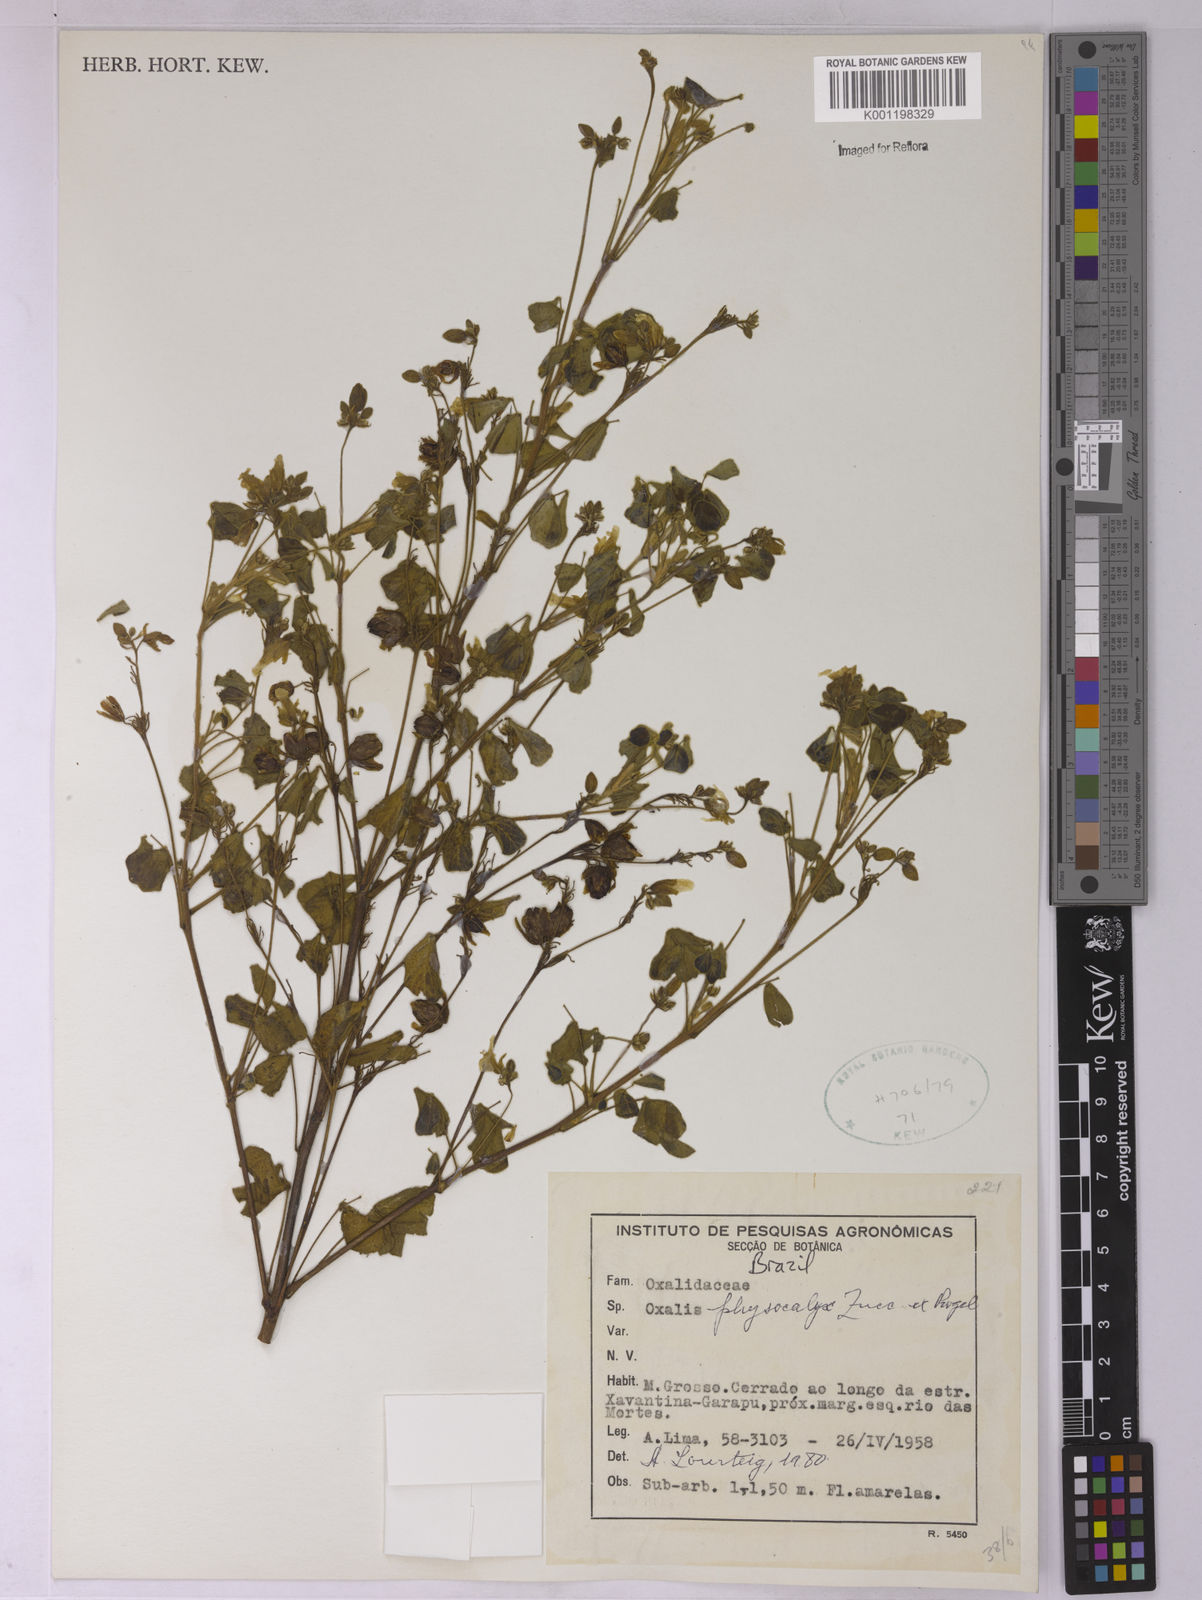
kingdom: Plantae
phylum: Tracheophyta
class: Magnoliopsida
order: Oxalidales
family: Oxalidaceae
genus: Oxalis
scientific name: Oxalis physocalyx
